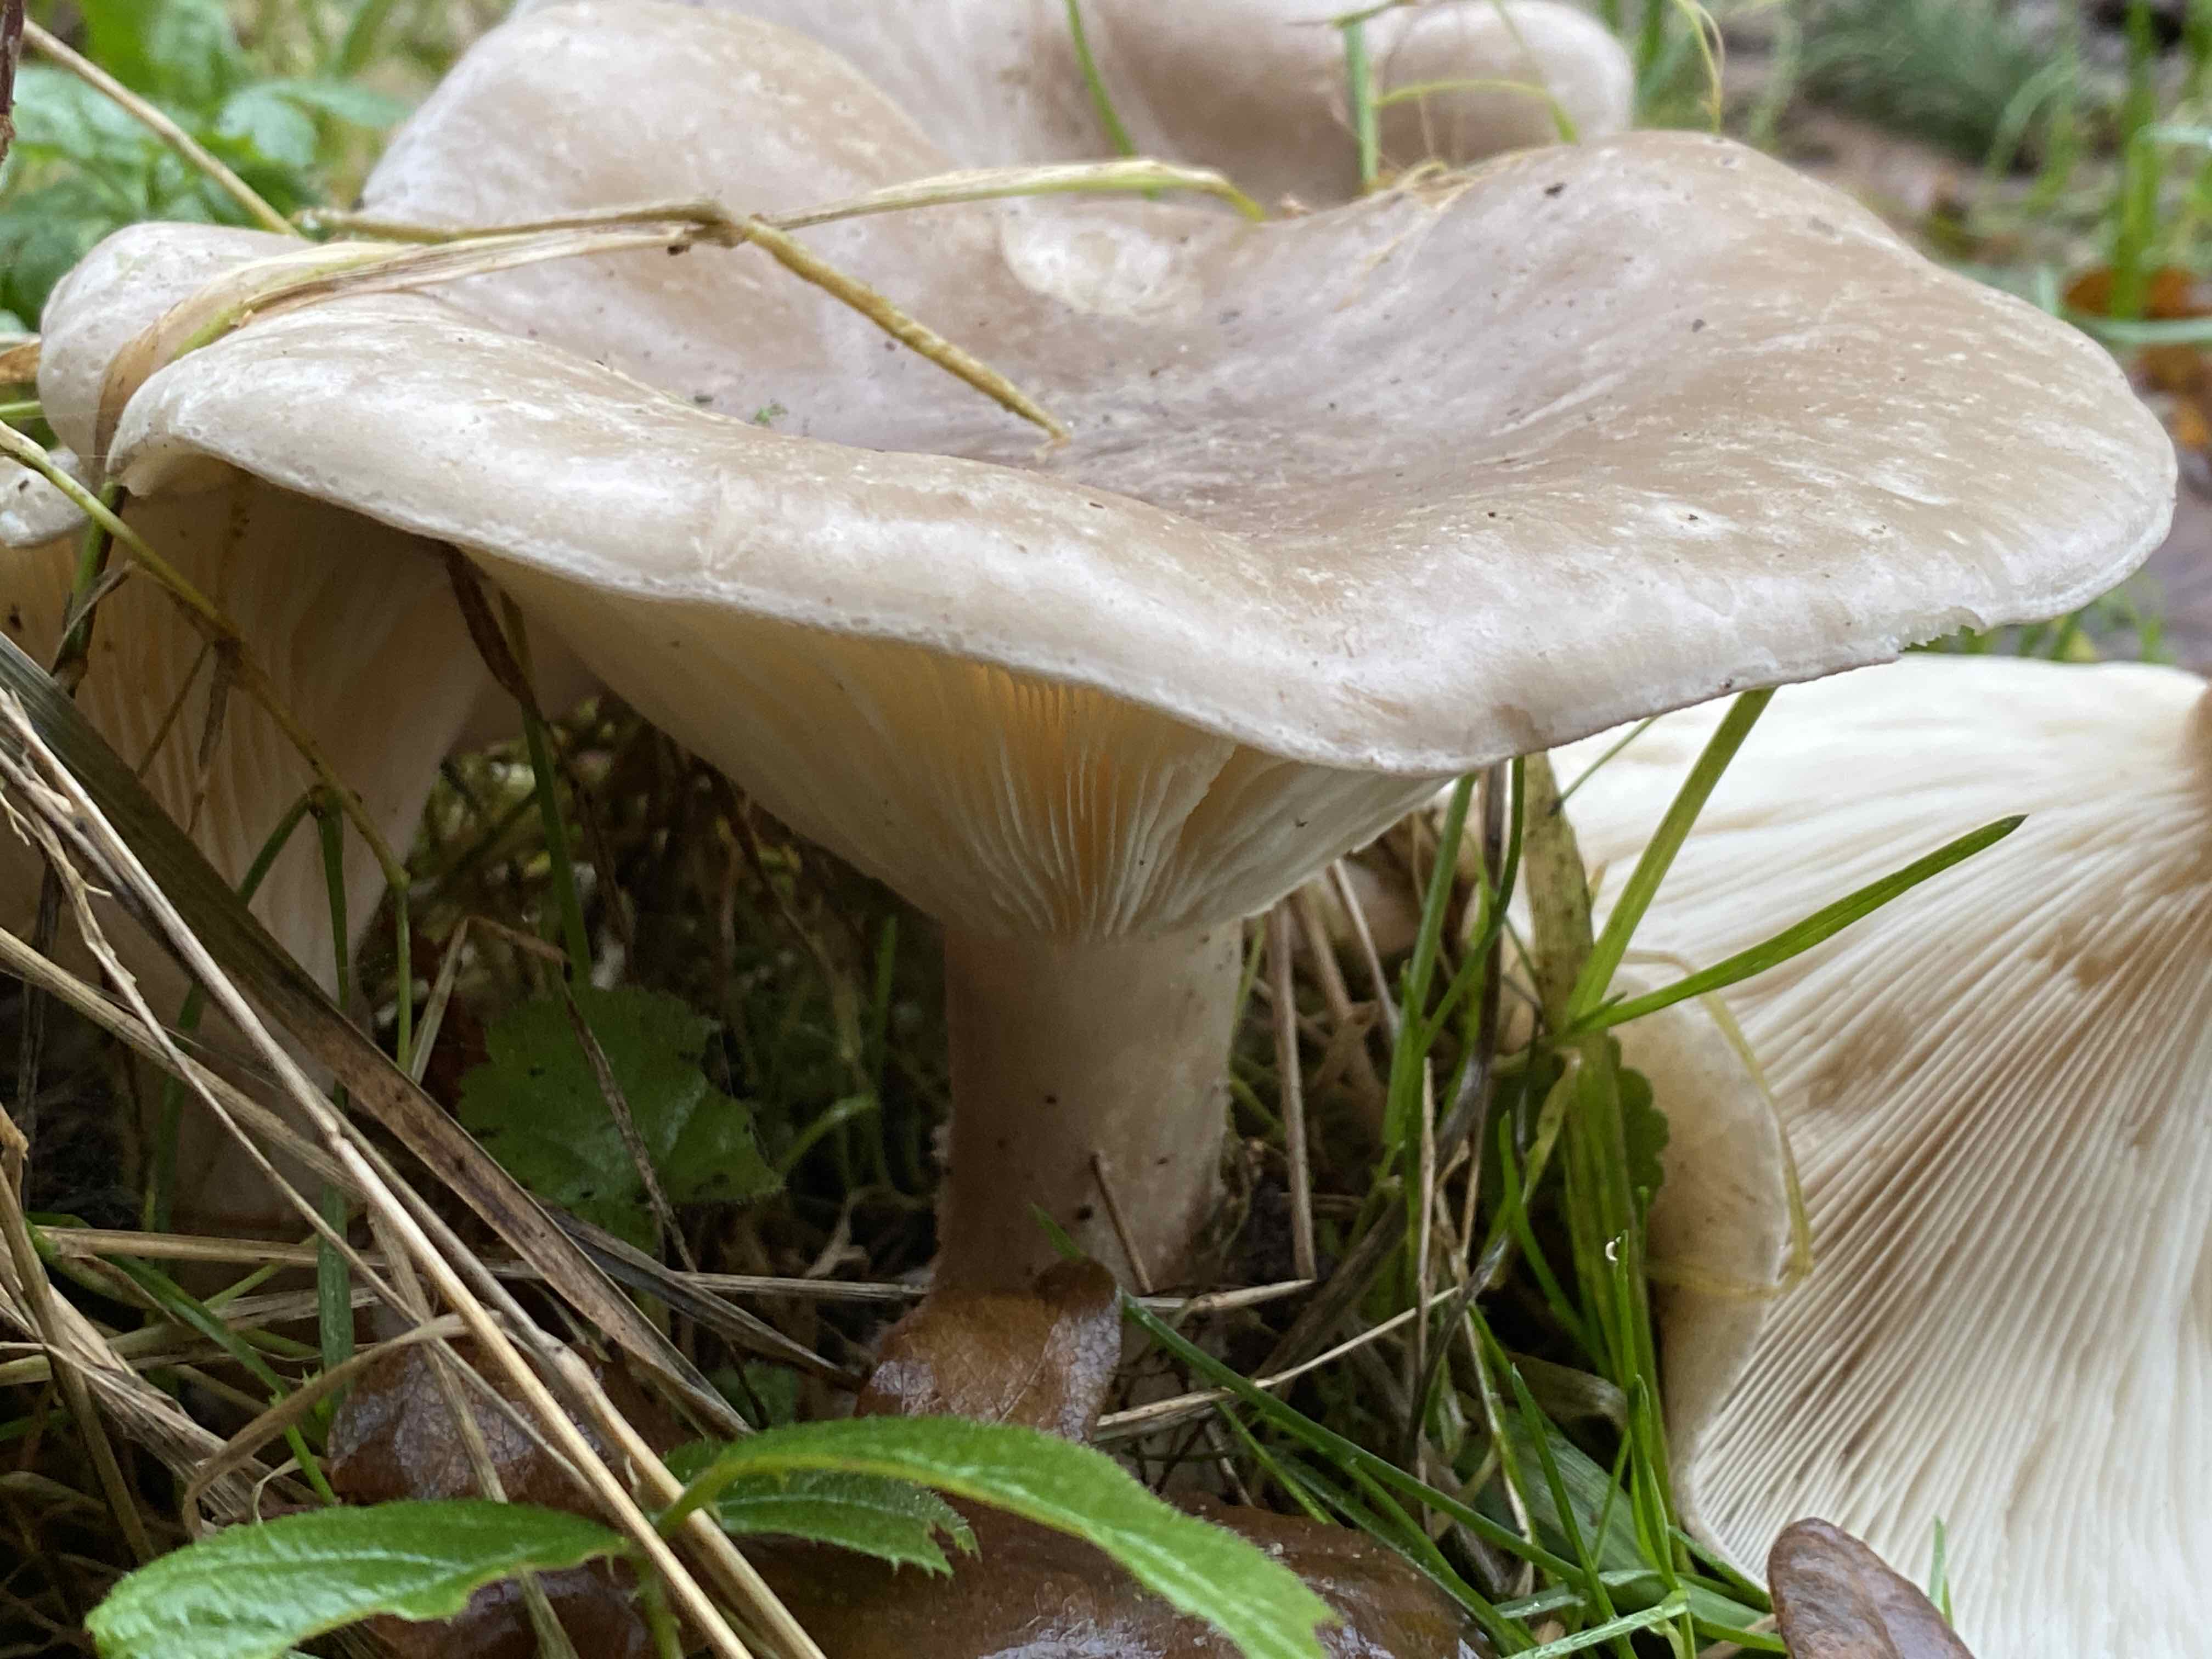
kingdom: Fungi
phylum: Basidiomycota
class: Agaricomycetes
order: Agaricales
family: Tricholomataceae
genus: Clitocybe
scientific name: Clitocybe nebularis
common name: tåge-tragthat
